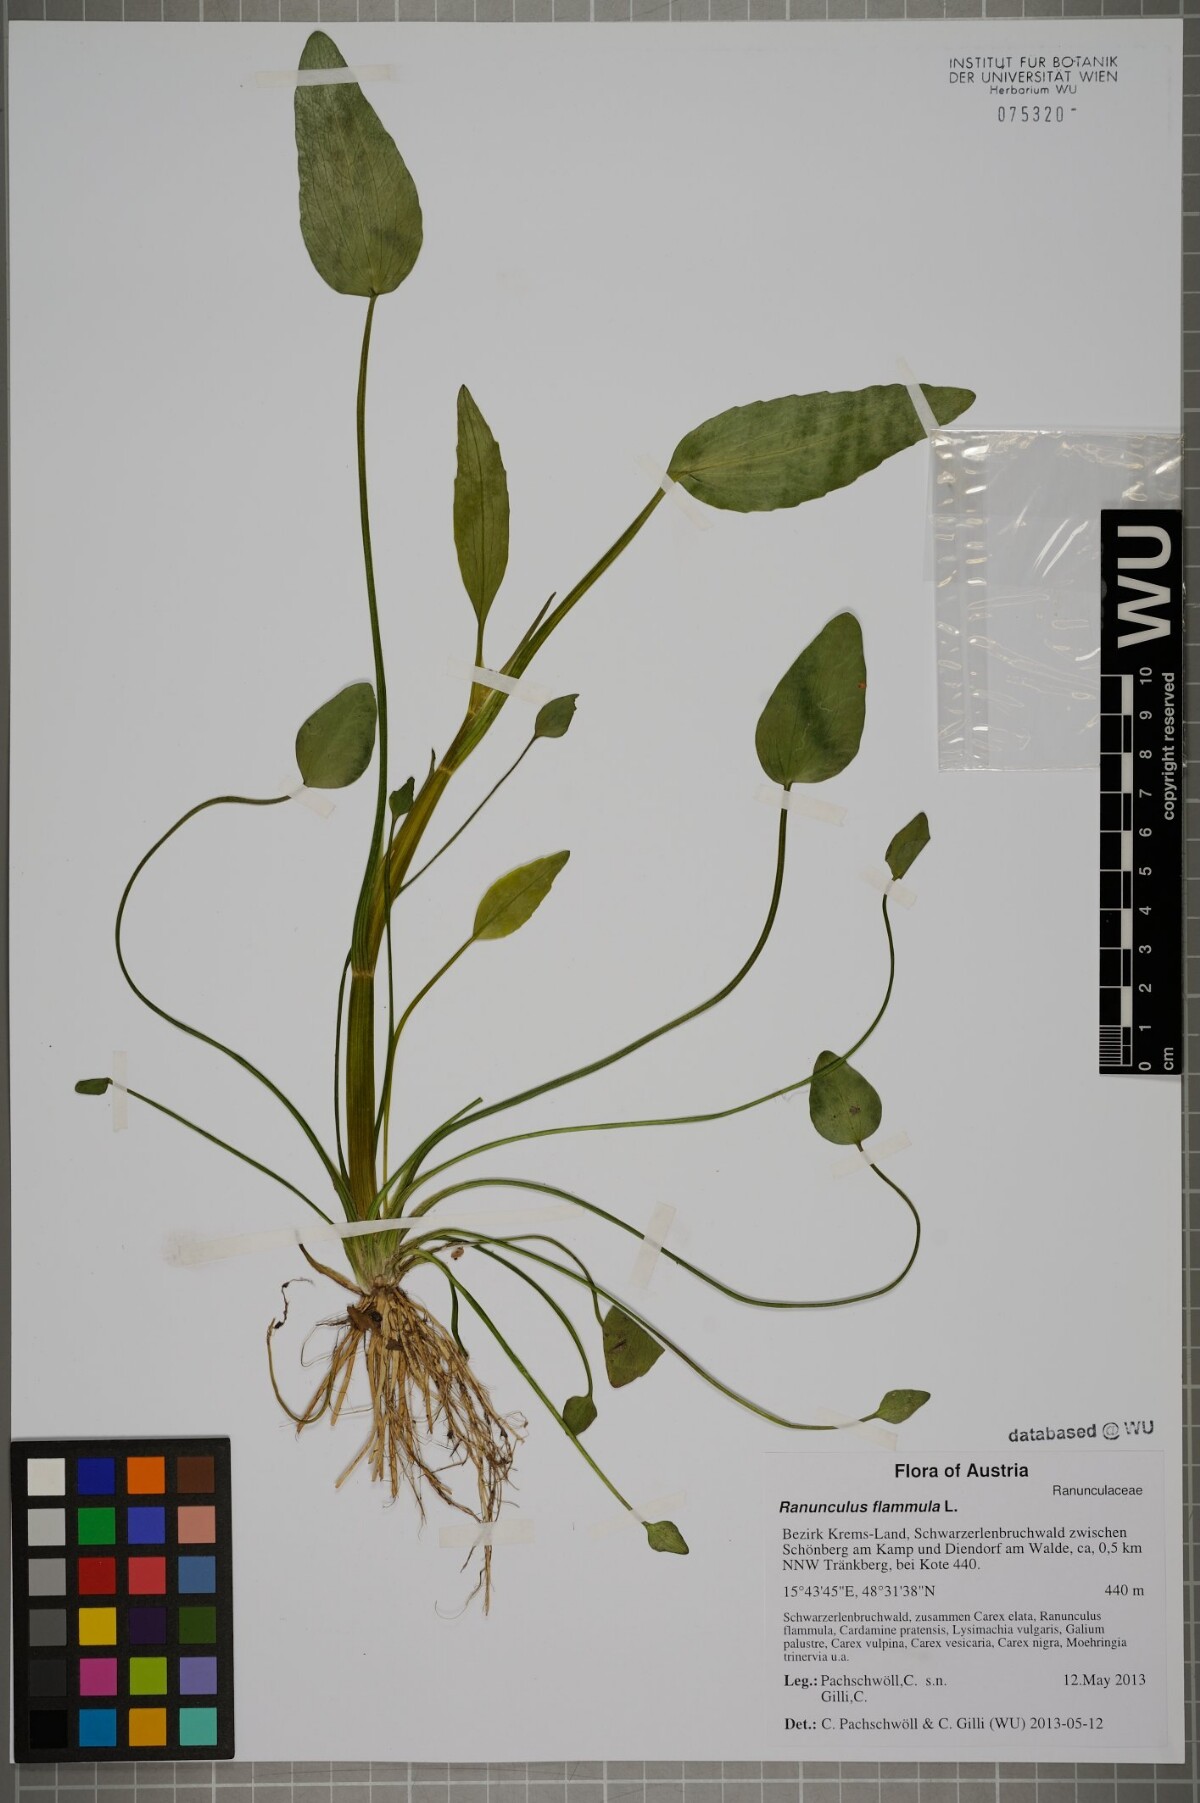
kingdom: Plantae
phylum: Tracheophyta
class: Magnoliopsida
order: Ranunculales
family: Ranunculaceae
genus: Ranunculus
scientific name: Ranunculus flammula
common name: Lesser spearwort
